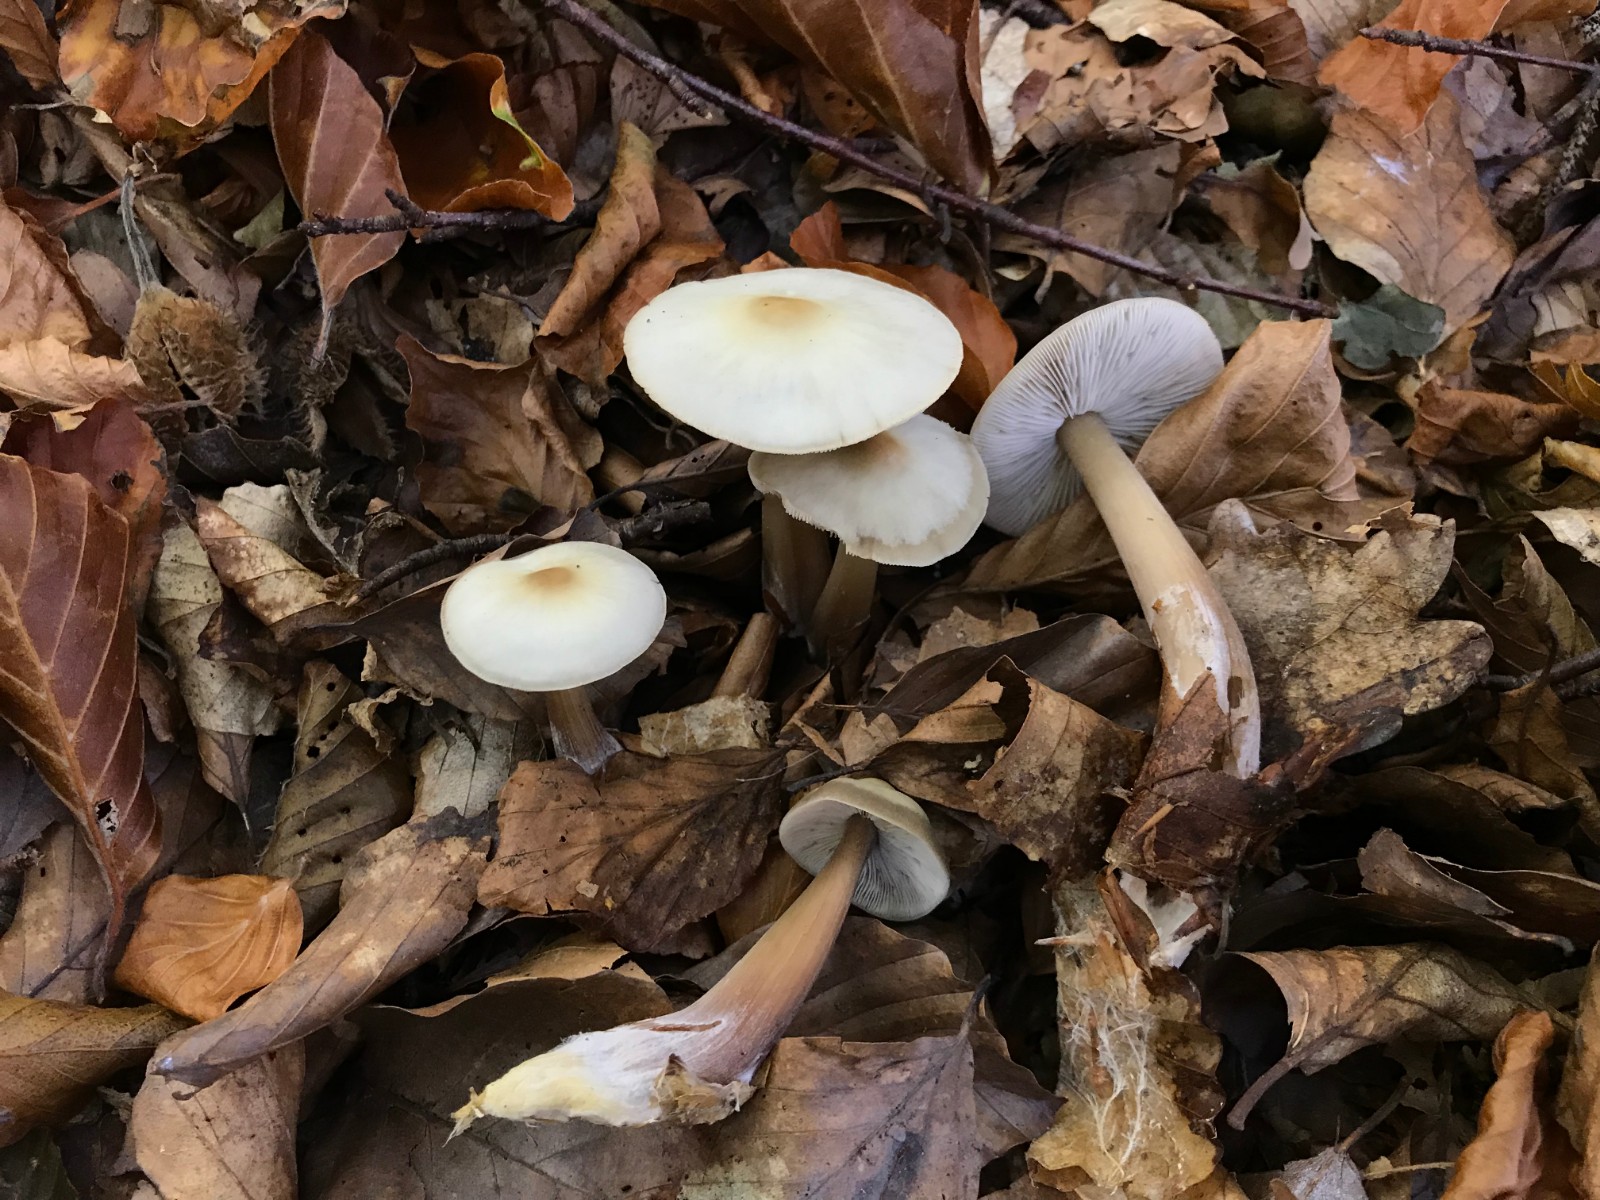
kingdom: Fungi
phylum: Basidiomycota
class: Agaricomycetes
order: Agaricales
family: Omphalotaceae
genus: Rhodocollybia
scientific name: Rhodocollybia asema
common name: horngrå fladhat
